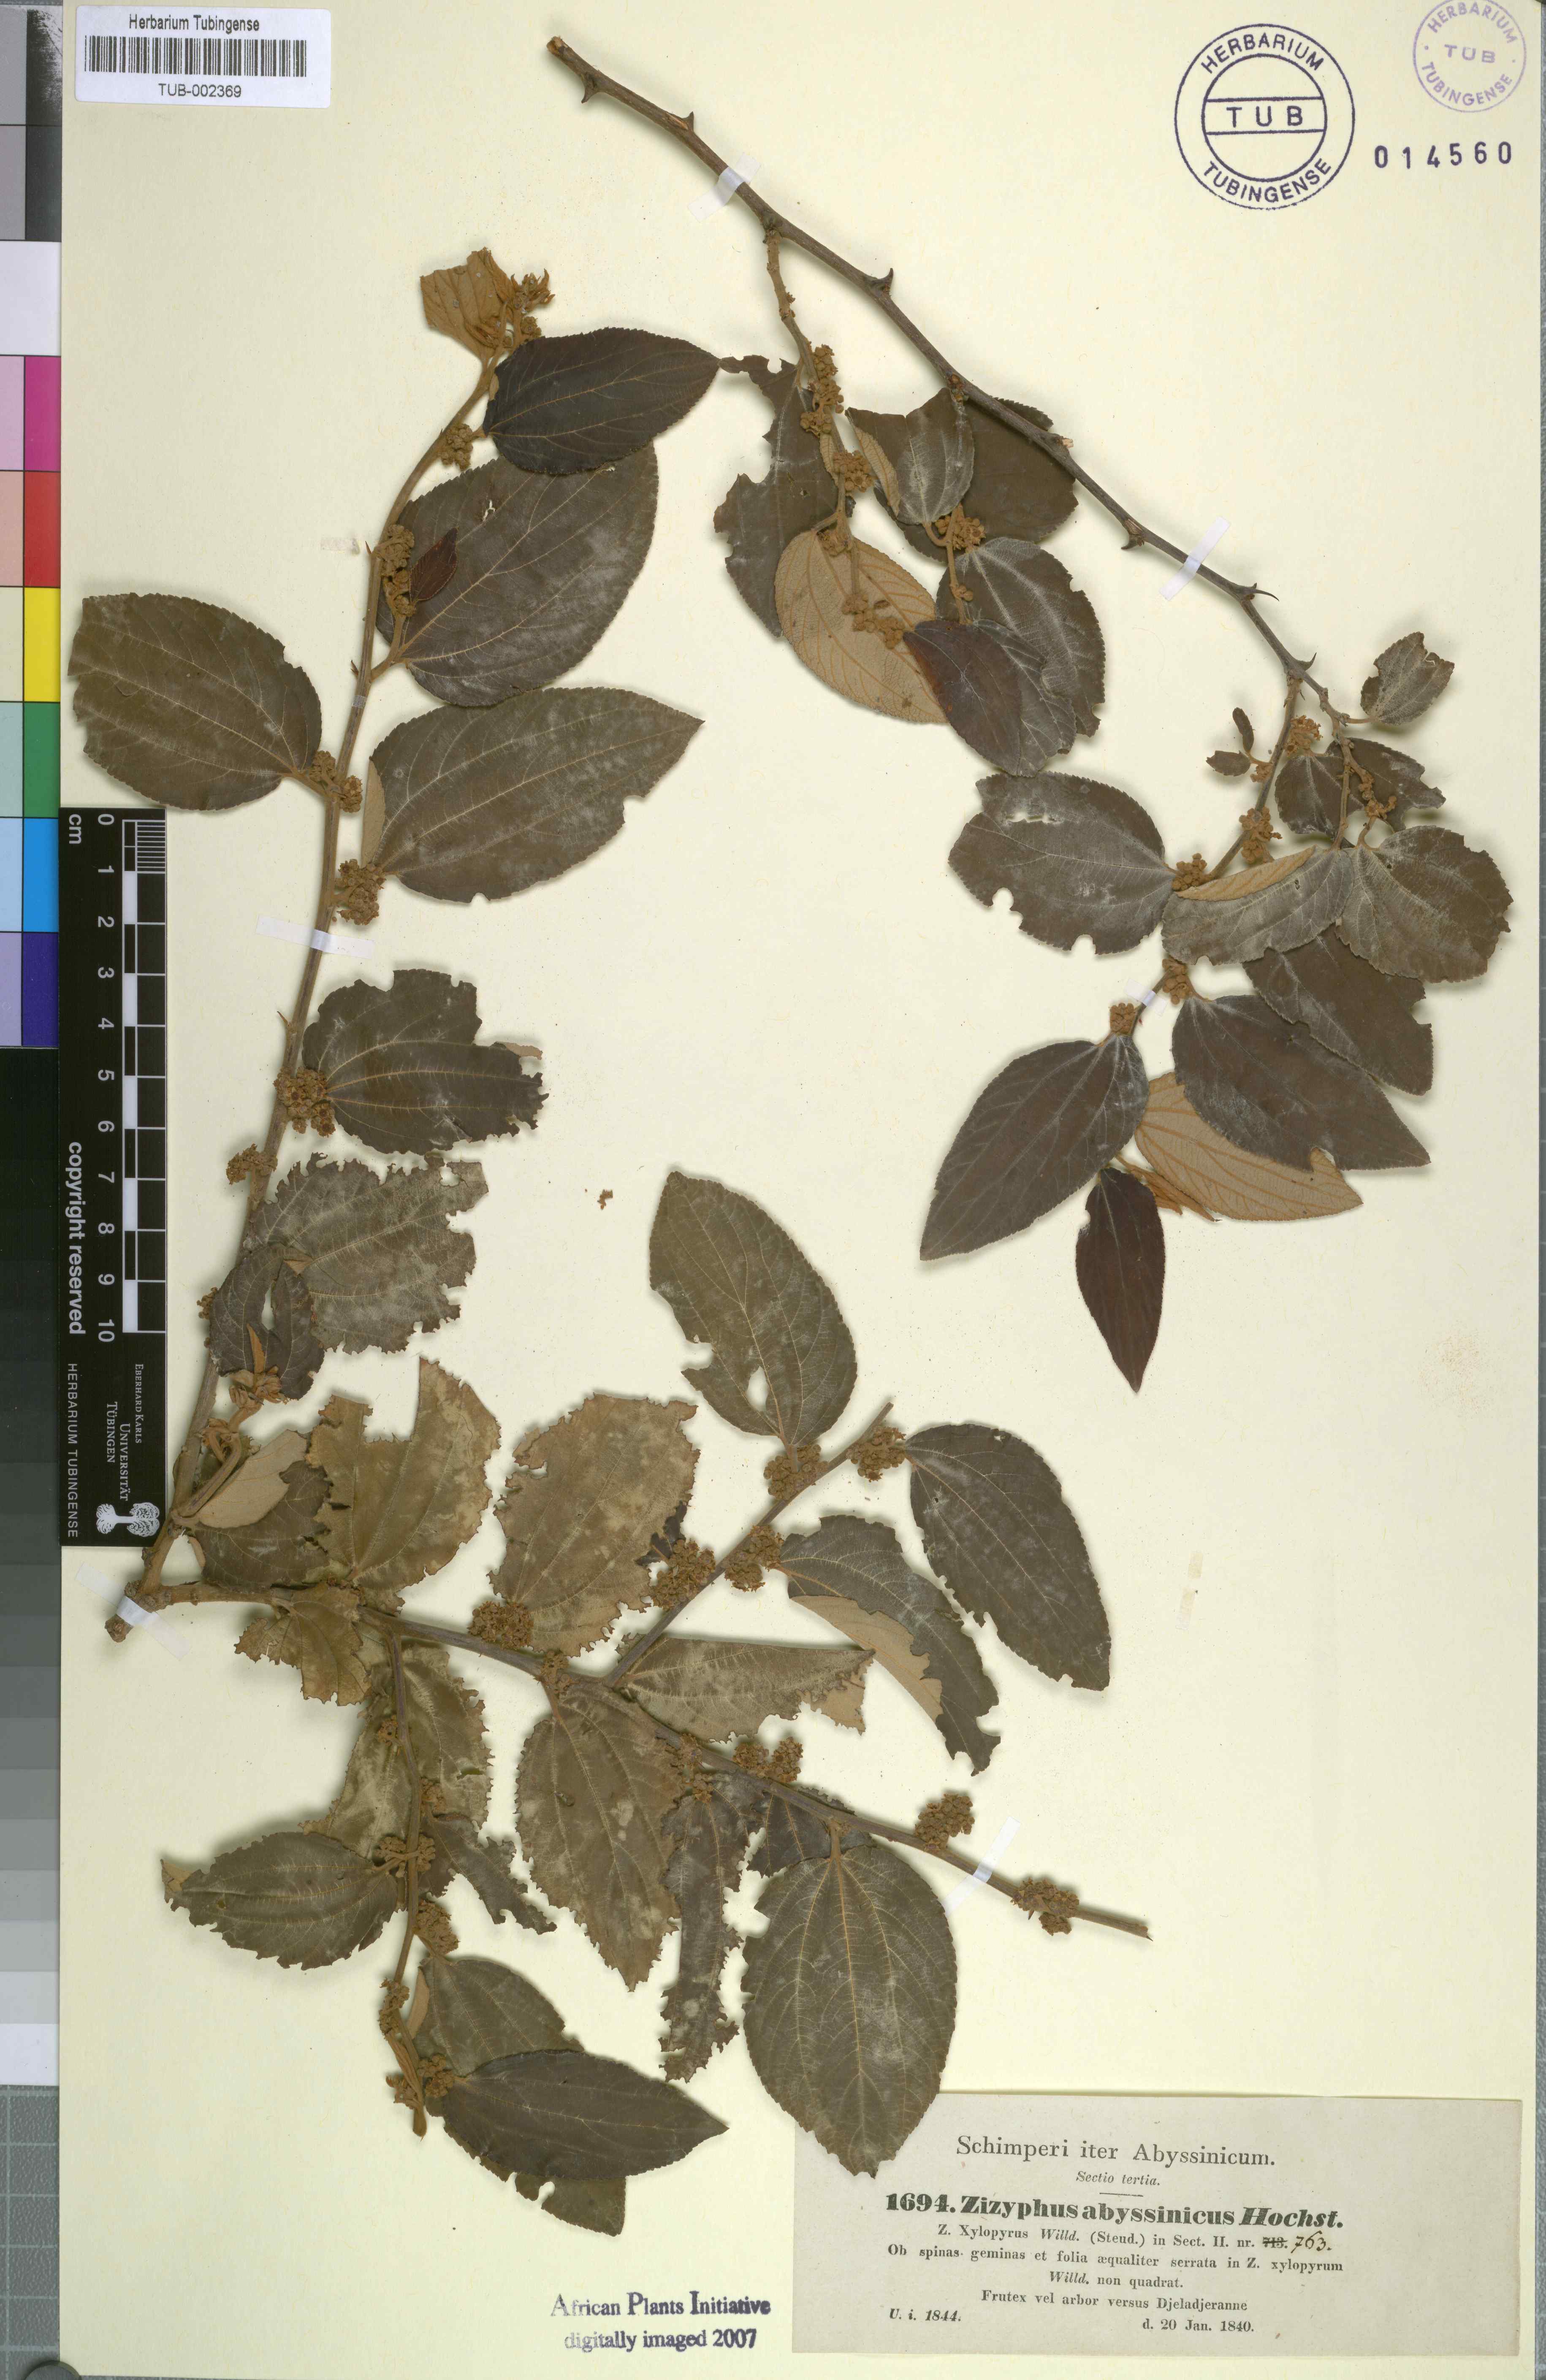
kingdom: Plantae
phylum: Tracheophyta
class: Magnoliopsida
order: Rosales
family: Rhamnaceae
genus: Ziziphus
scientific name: Ziziphus jujuba
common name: Jujube red date
